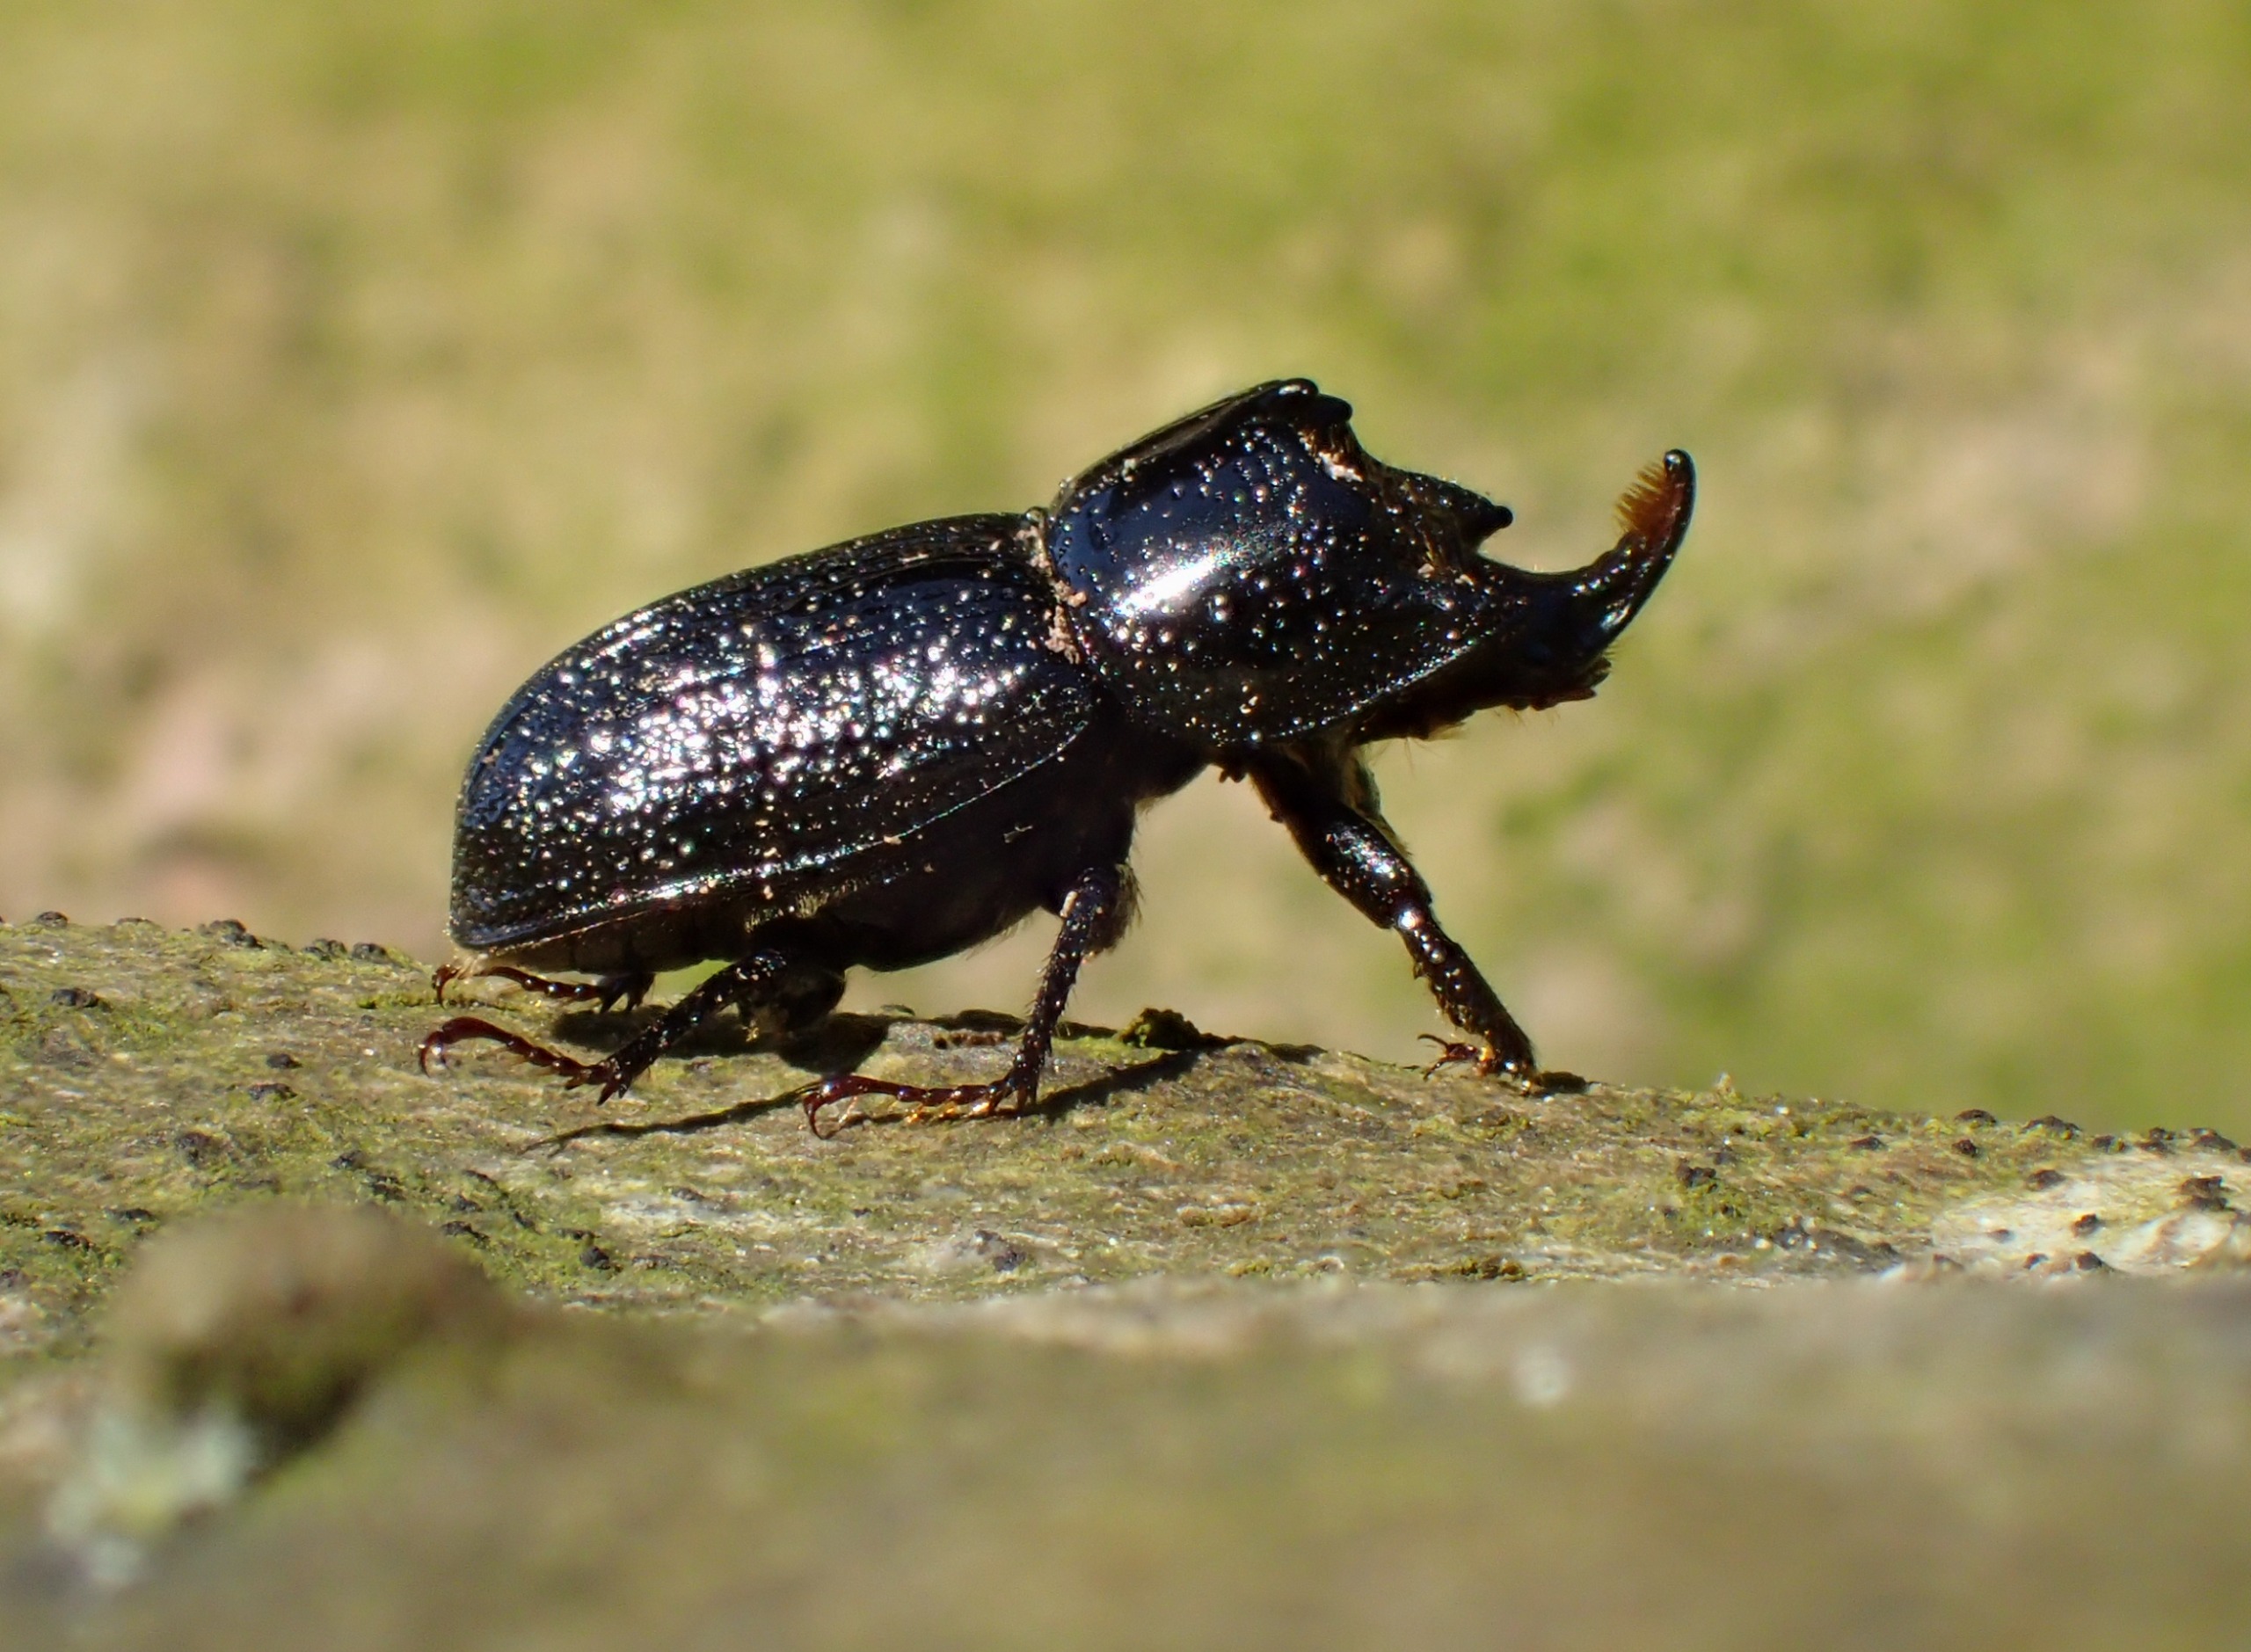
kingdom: Animalia
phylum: Arthropoda
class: Insecta
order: Coleoptera
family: Lucanidae
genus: Sinodendron
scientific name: Sinodendron cylindricum
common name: Valsehjort
